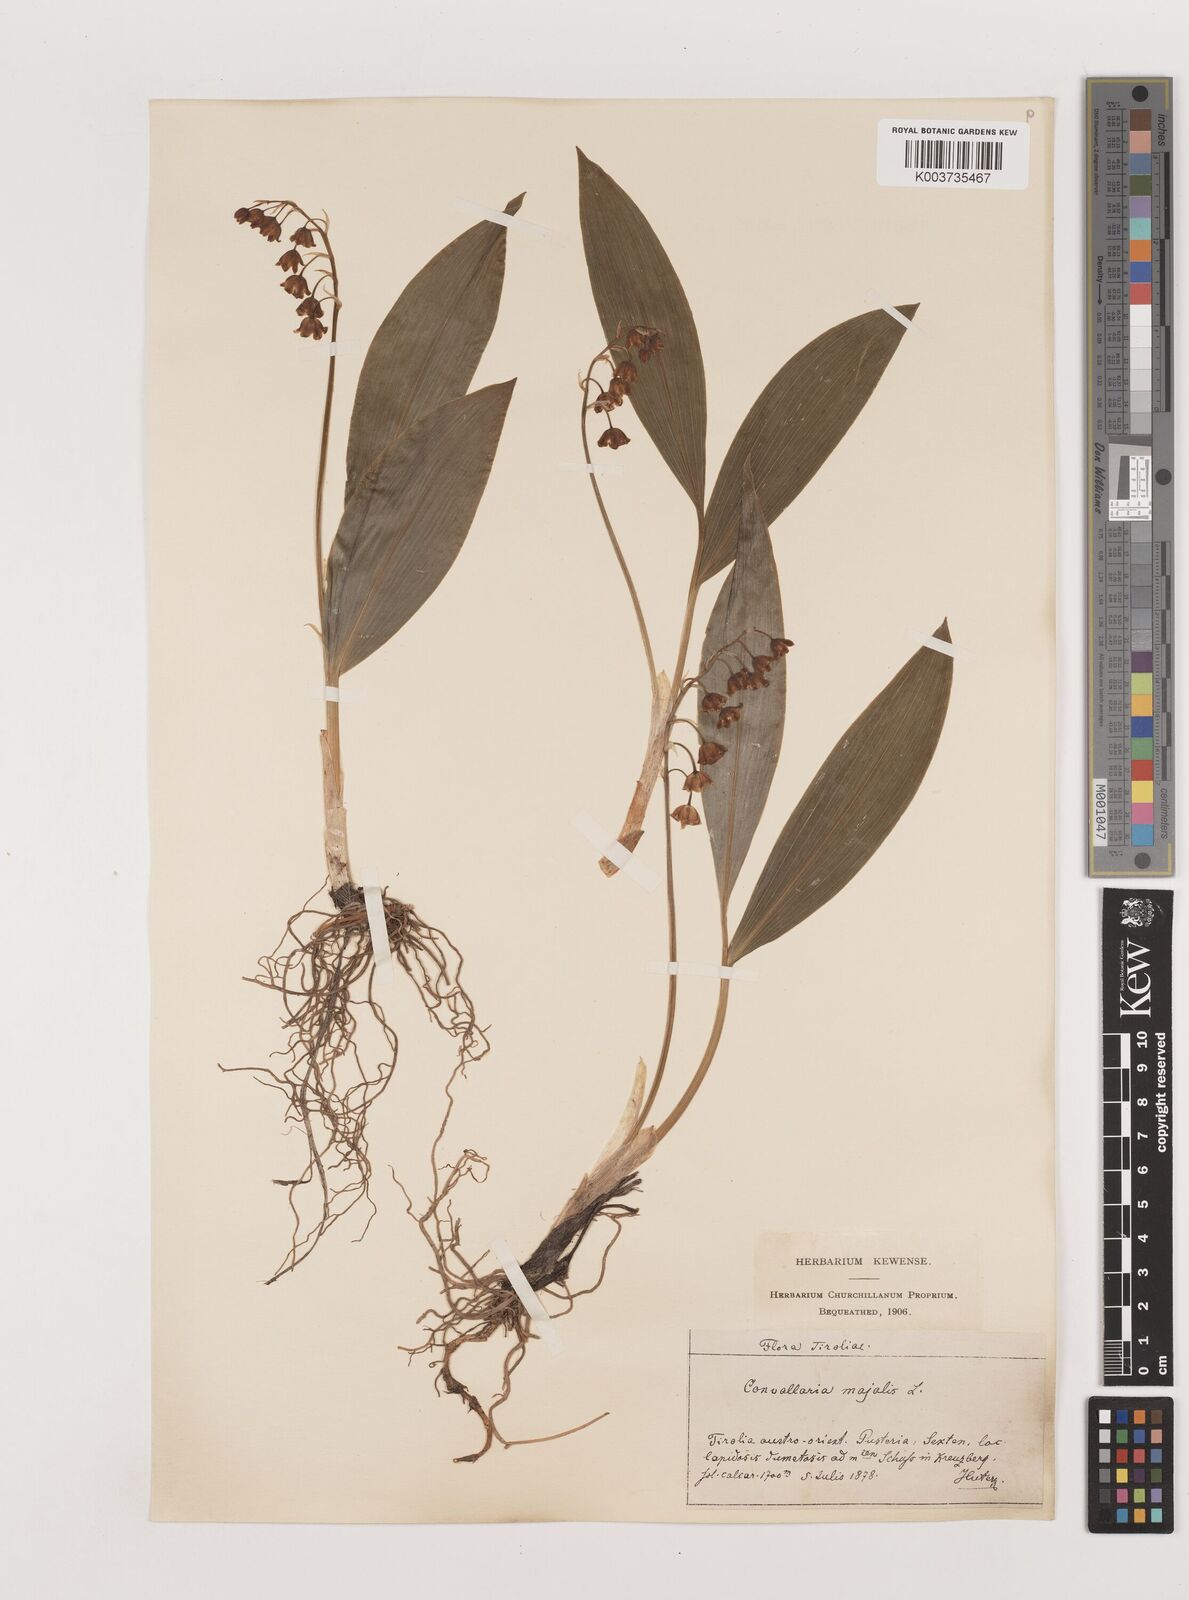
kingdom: Plantae
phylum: Tracheophyta
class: Liliopsida
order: Asparagales
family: Asparagaceae
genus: Convallaria
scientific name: Convallaria majalis
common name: Lily-of-the-valley
